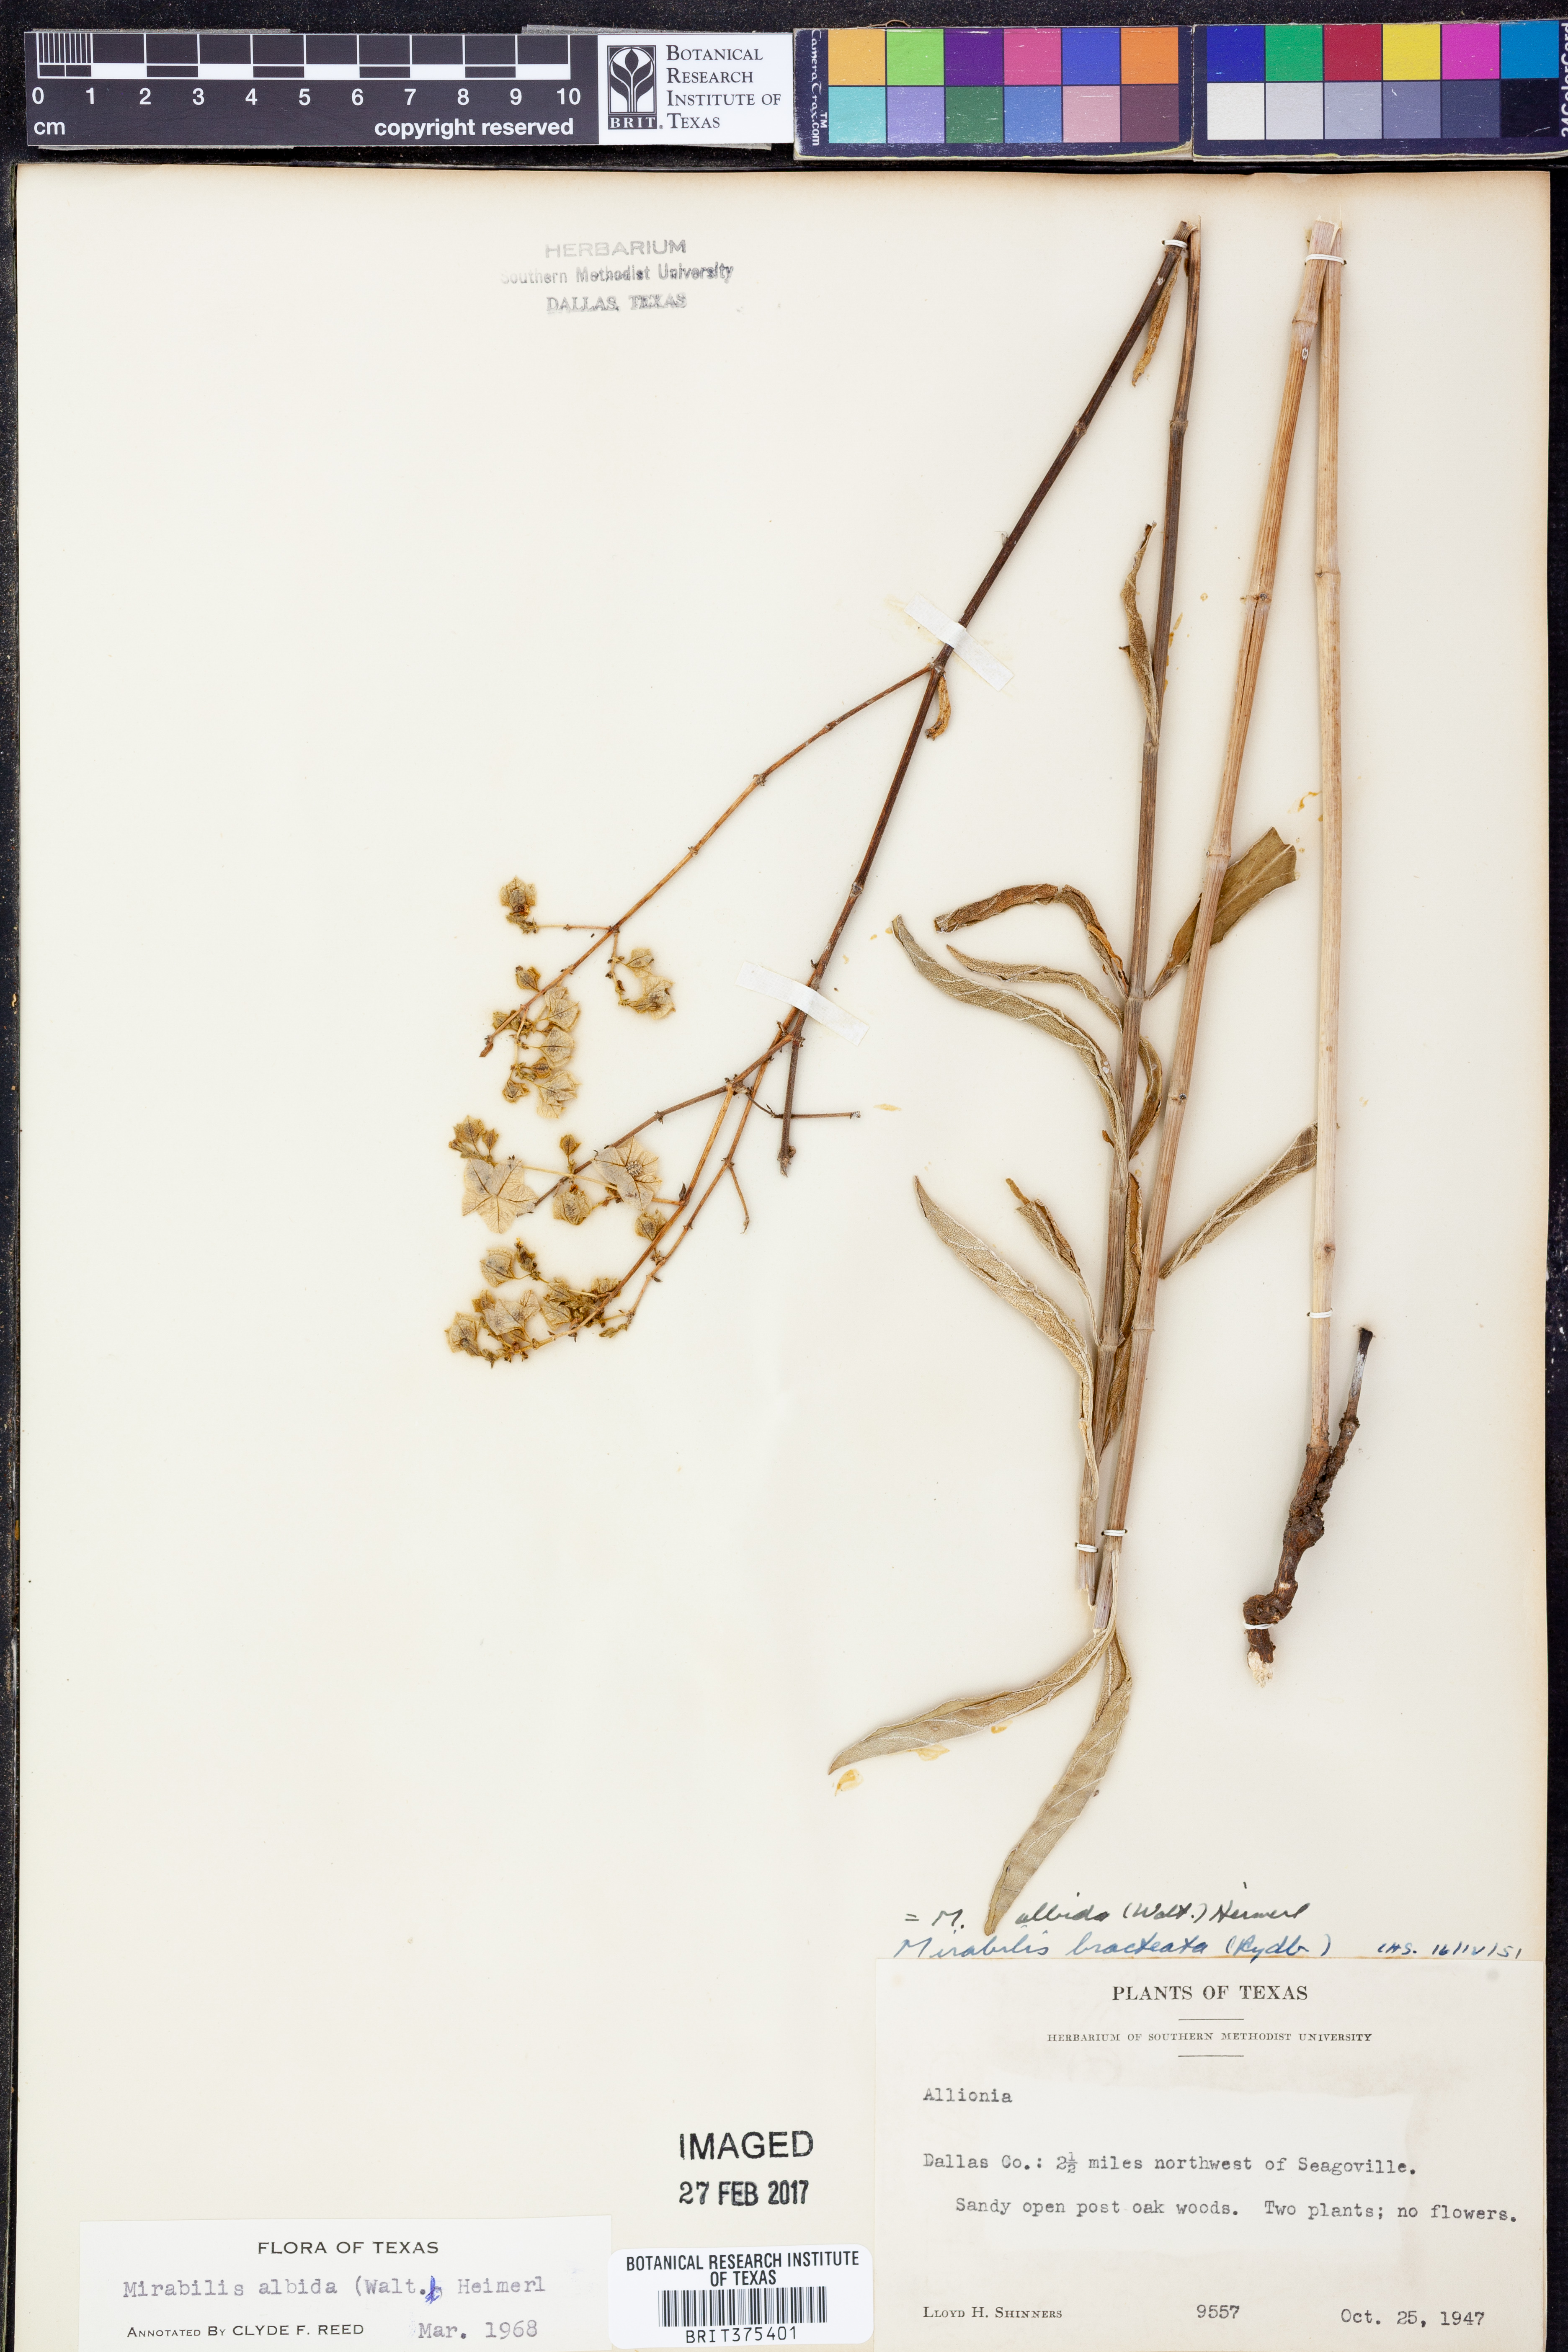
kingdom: Plantae
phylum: Tracheophyta
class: Magnoliopsida
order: Caryophyllales
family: Nyctaginaceae
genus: Mirabilis
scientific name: Mirabilis albida
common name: Hairy four-o'clock
